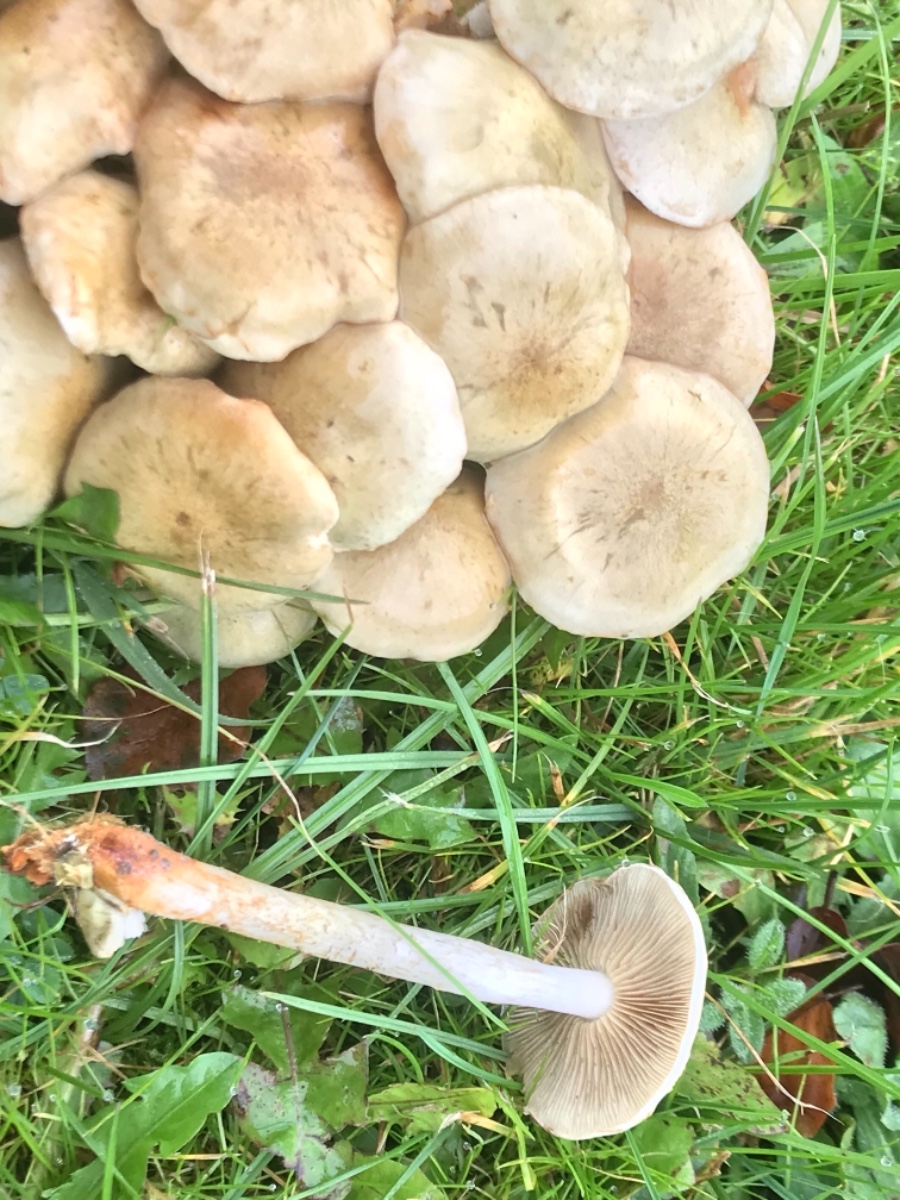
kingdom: Fungi
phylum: Basidiomycota
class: Agaricomycetes
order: Agaricales
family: Strophariaceae
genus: Pholiota
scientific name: Pholiota gummosa
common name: grøngul skælhat
